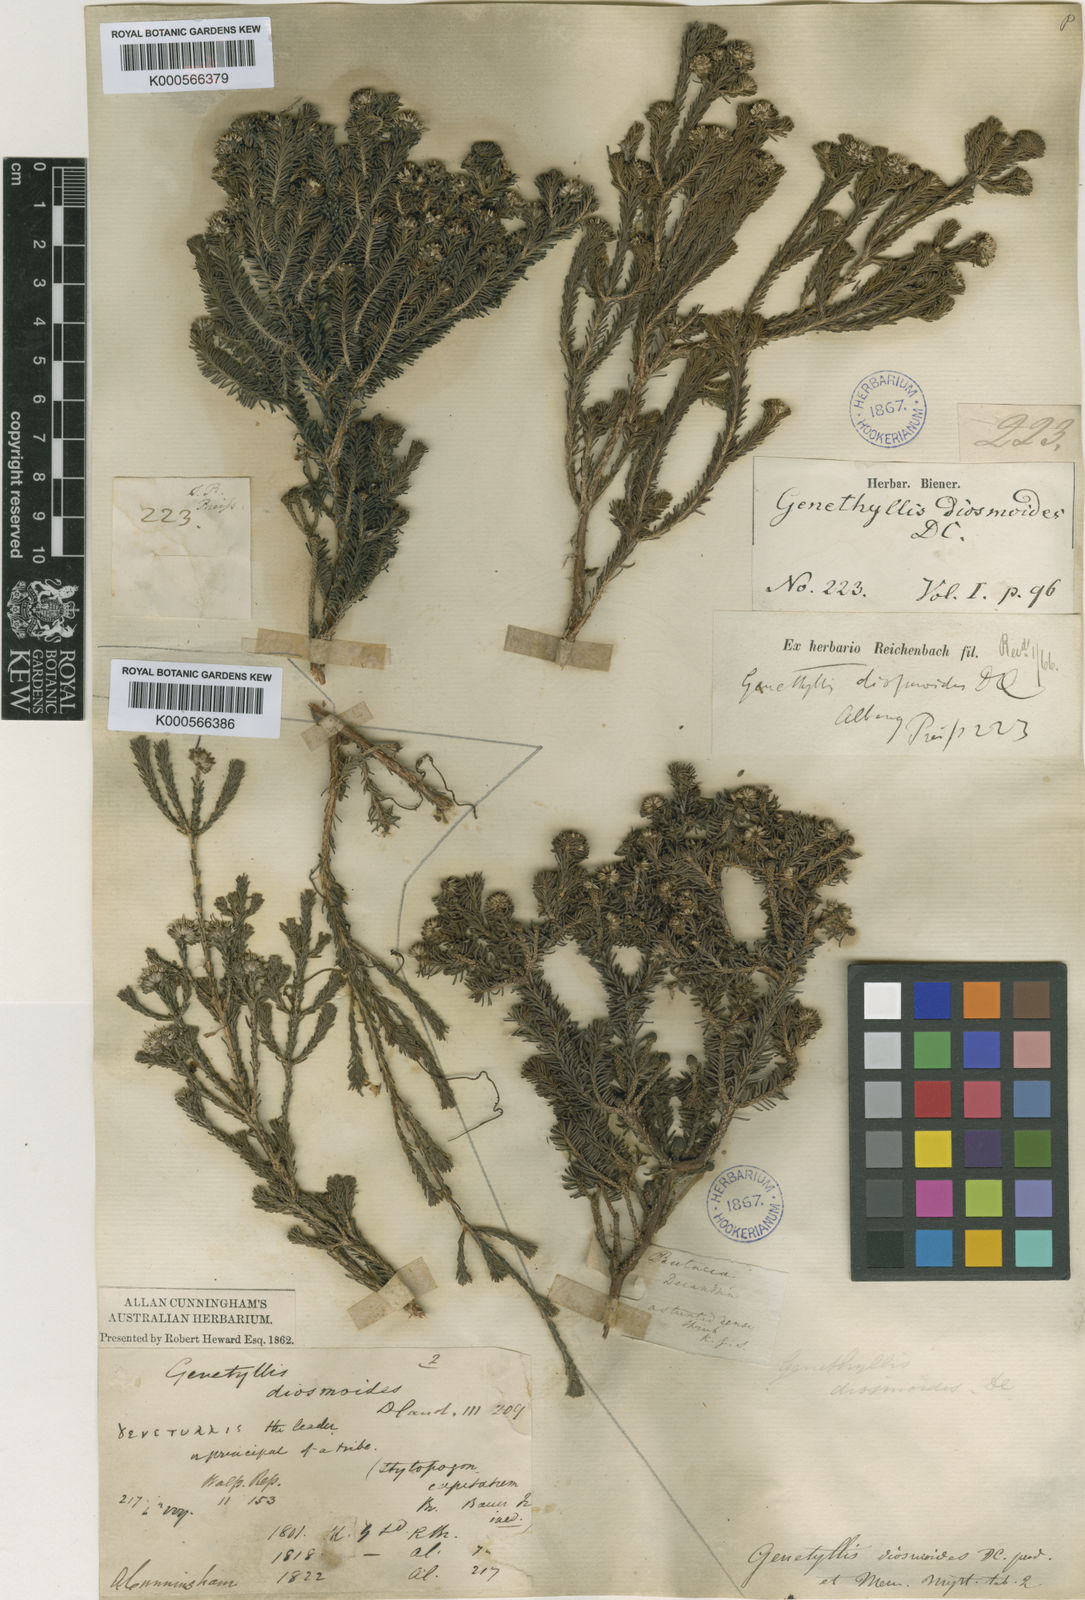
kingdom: Plantae
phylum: Tracheophyta
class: Magnoliopsida
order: Myrtales
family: Myrtaceae
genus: Darwinia
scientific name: Darwinia diosmoides
